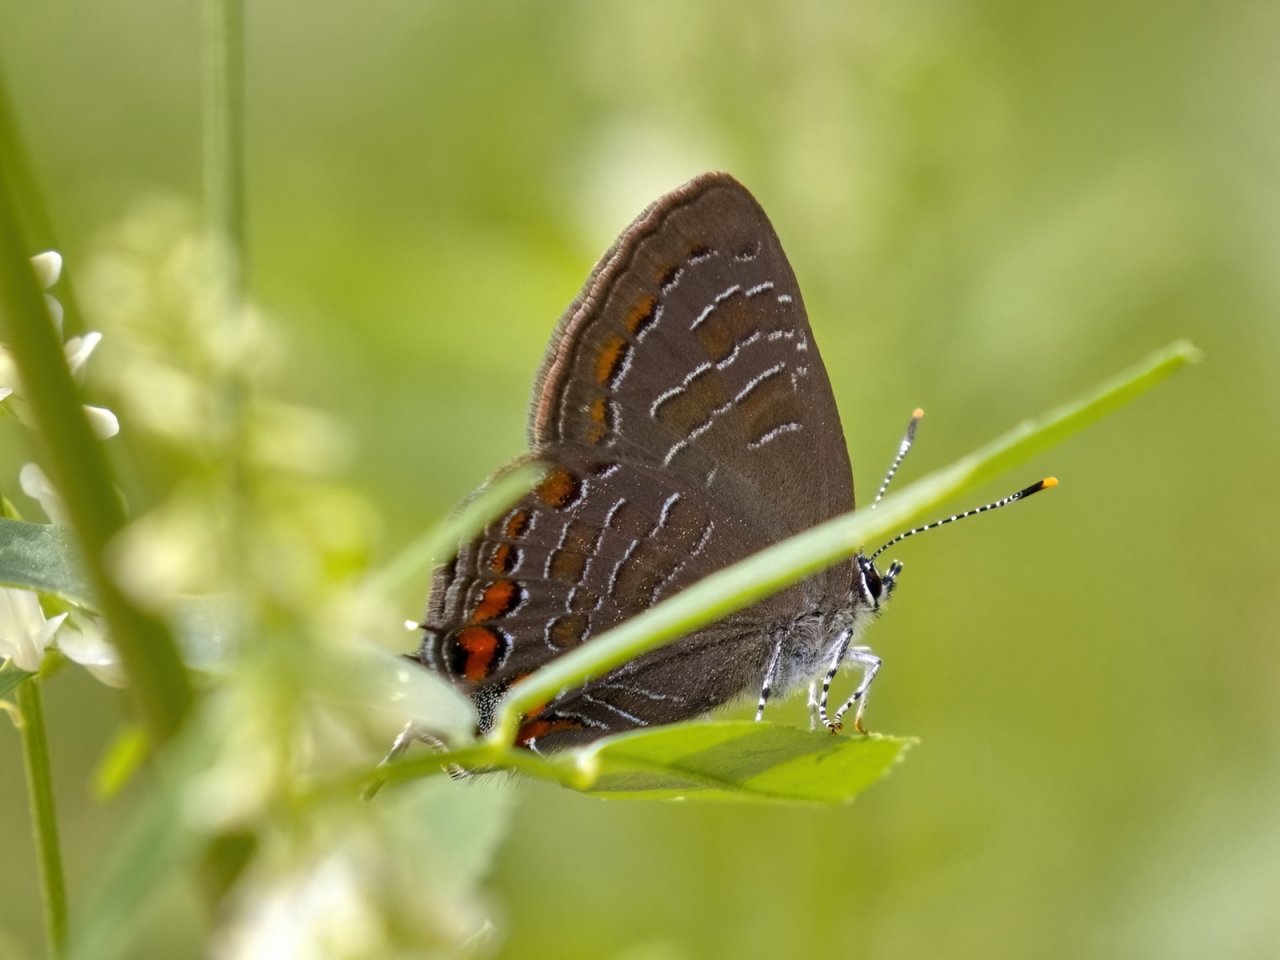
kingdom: Animalia
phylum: Arthropoda
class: Insecta
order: Lepidoptera
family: Lycaenidae
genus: Satyrium
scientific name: Satyrium liparops
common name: Striped Hairstreak
